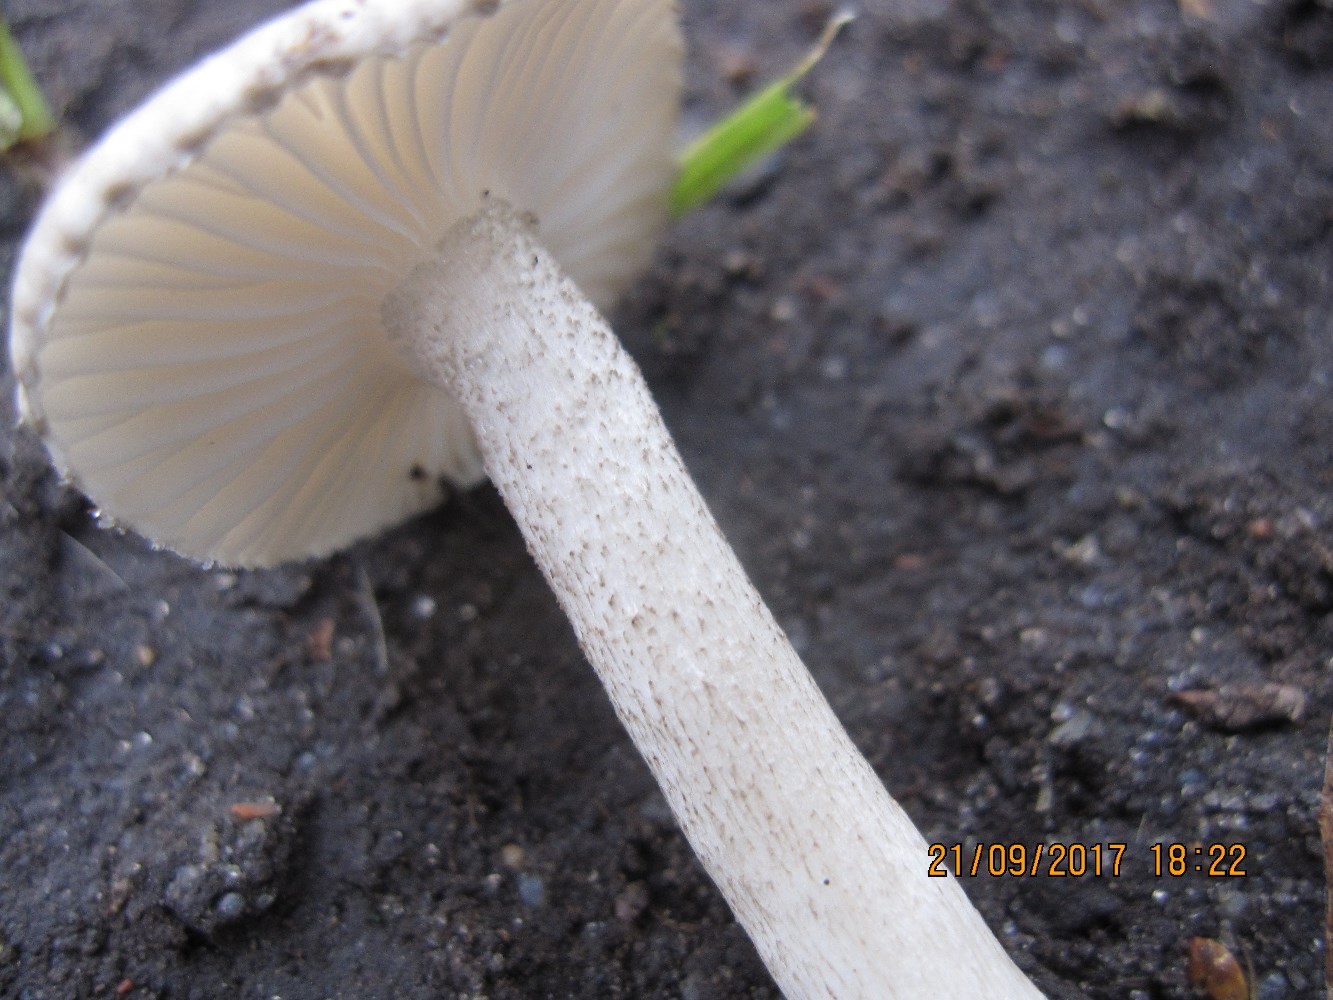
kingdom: Fungi
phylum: Basidiomycota
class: Agaricomycetes
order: Agaricales
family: Hygrophoraceae
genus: Hygrophorus
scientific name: Hygrophorus pustulatus
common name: mørkprikket sneglehat
